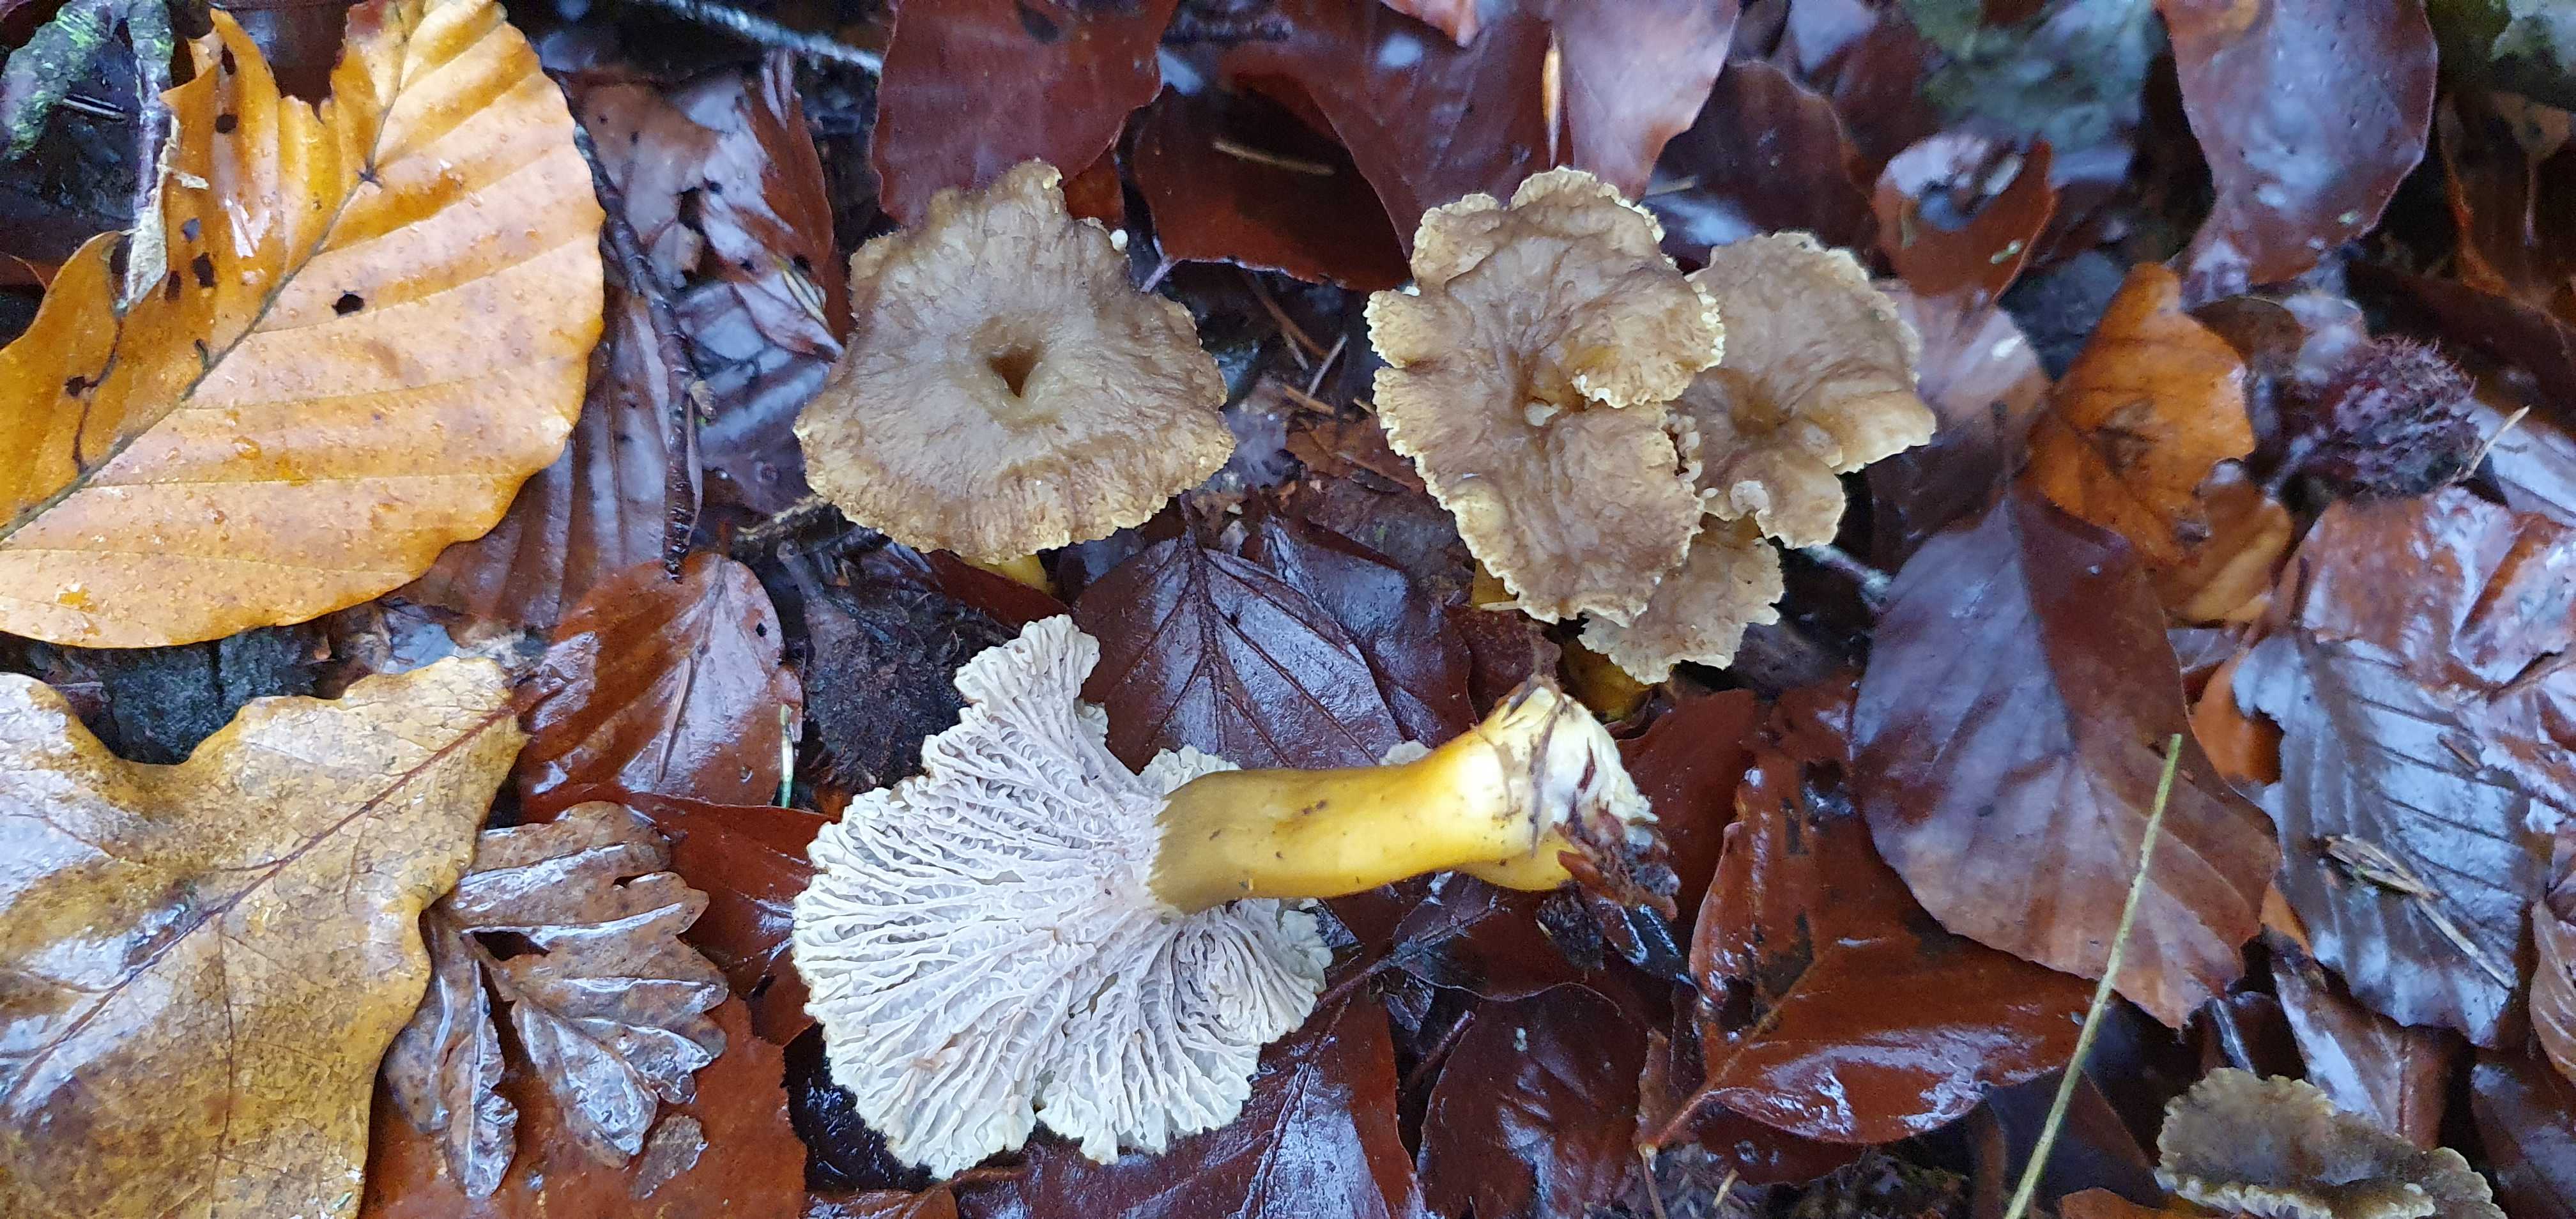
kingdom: Fungi
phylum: Basidiomycota
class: Agaricomycetes
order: Cantharellales
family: Hydnaceae
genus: Craterellus
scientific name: Craterellus tubaeformis
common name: tragt-kantarel
